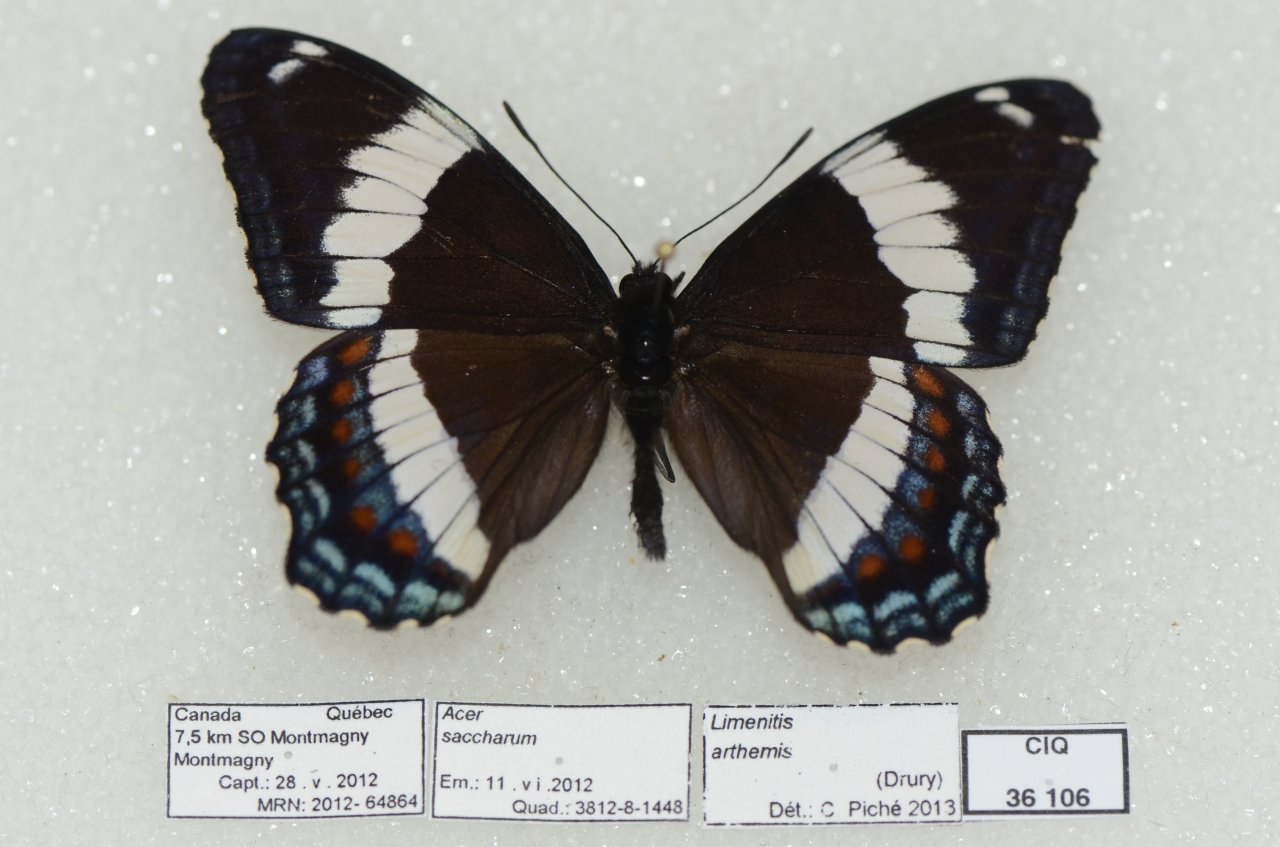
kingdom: Animalia
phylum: Arthropoda
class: Insecta
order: Lepidoptera
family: Nymphalidae
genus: Limenitis
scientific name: Limenitis arthemis
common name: Red-spotted Admiral
